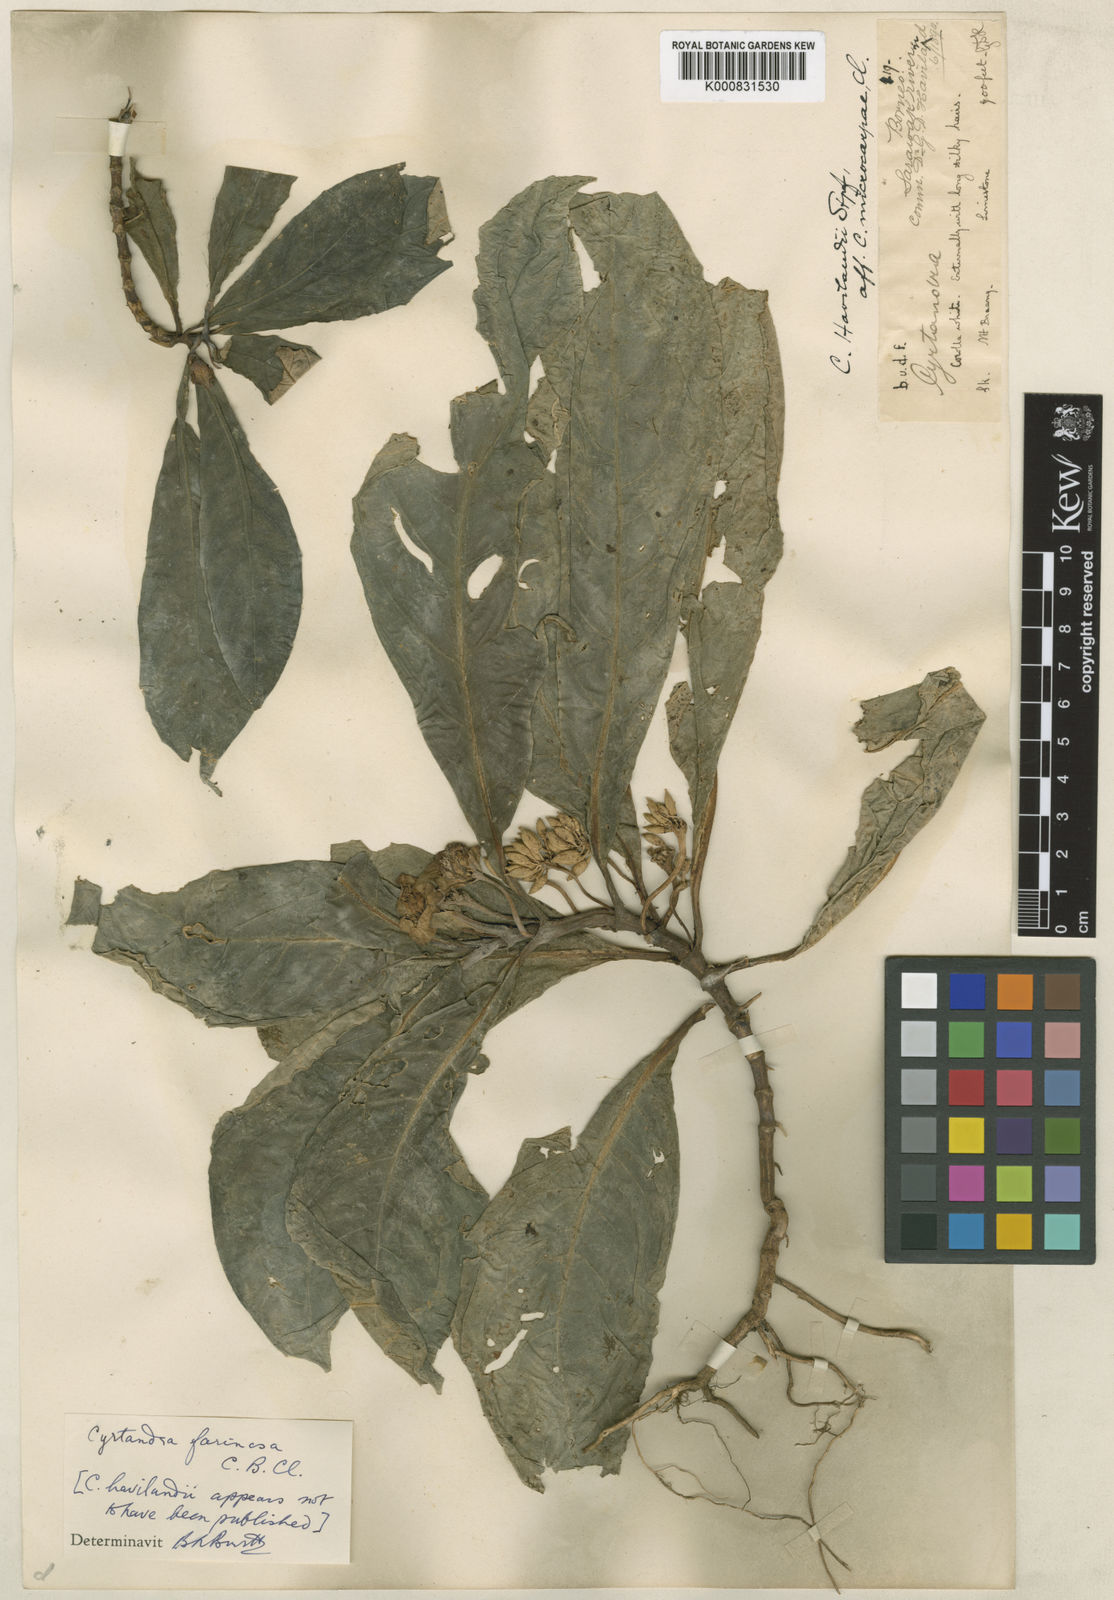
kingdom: Plantae
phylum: Tracheophyta
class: Magnoliopsida
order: Lamiales
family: Gesneriaceae
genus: Cyrtandra
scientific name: Cyrtandra farinosa
